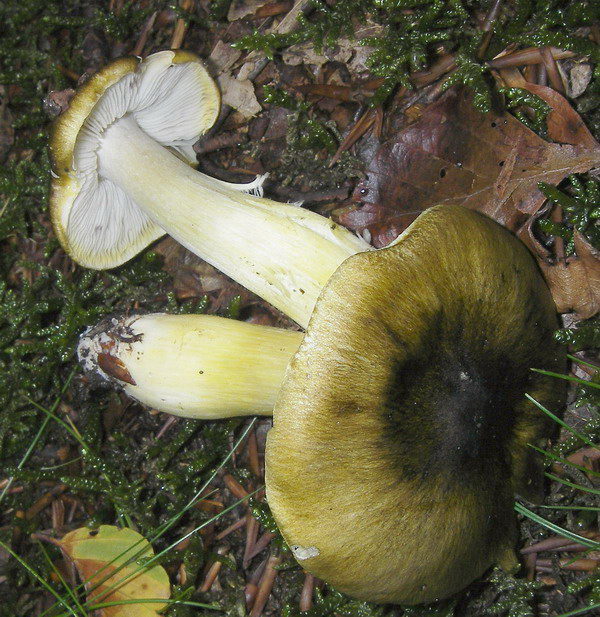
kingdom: Fungi
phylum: Basidiomycota
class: Agaricomycetes
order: Agaricales
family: Tricholomataceae
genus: Tricholoma
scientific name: Tricholoma viridilutescens
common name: sortøjet ridderhat
